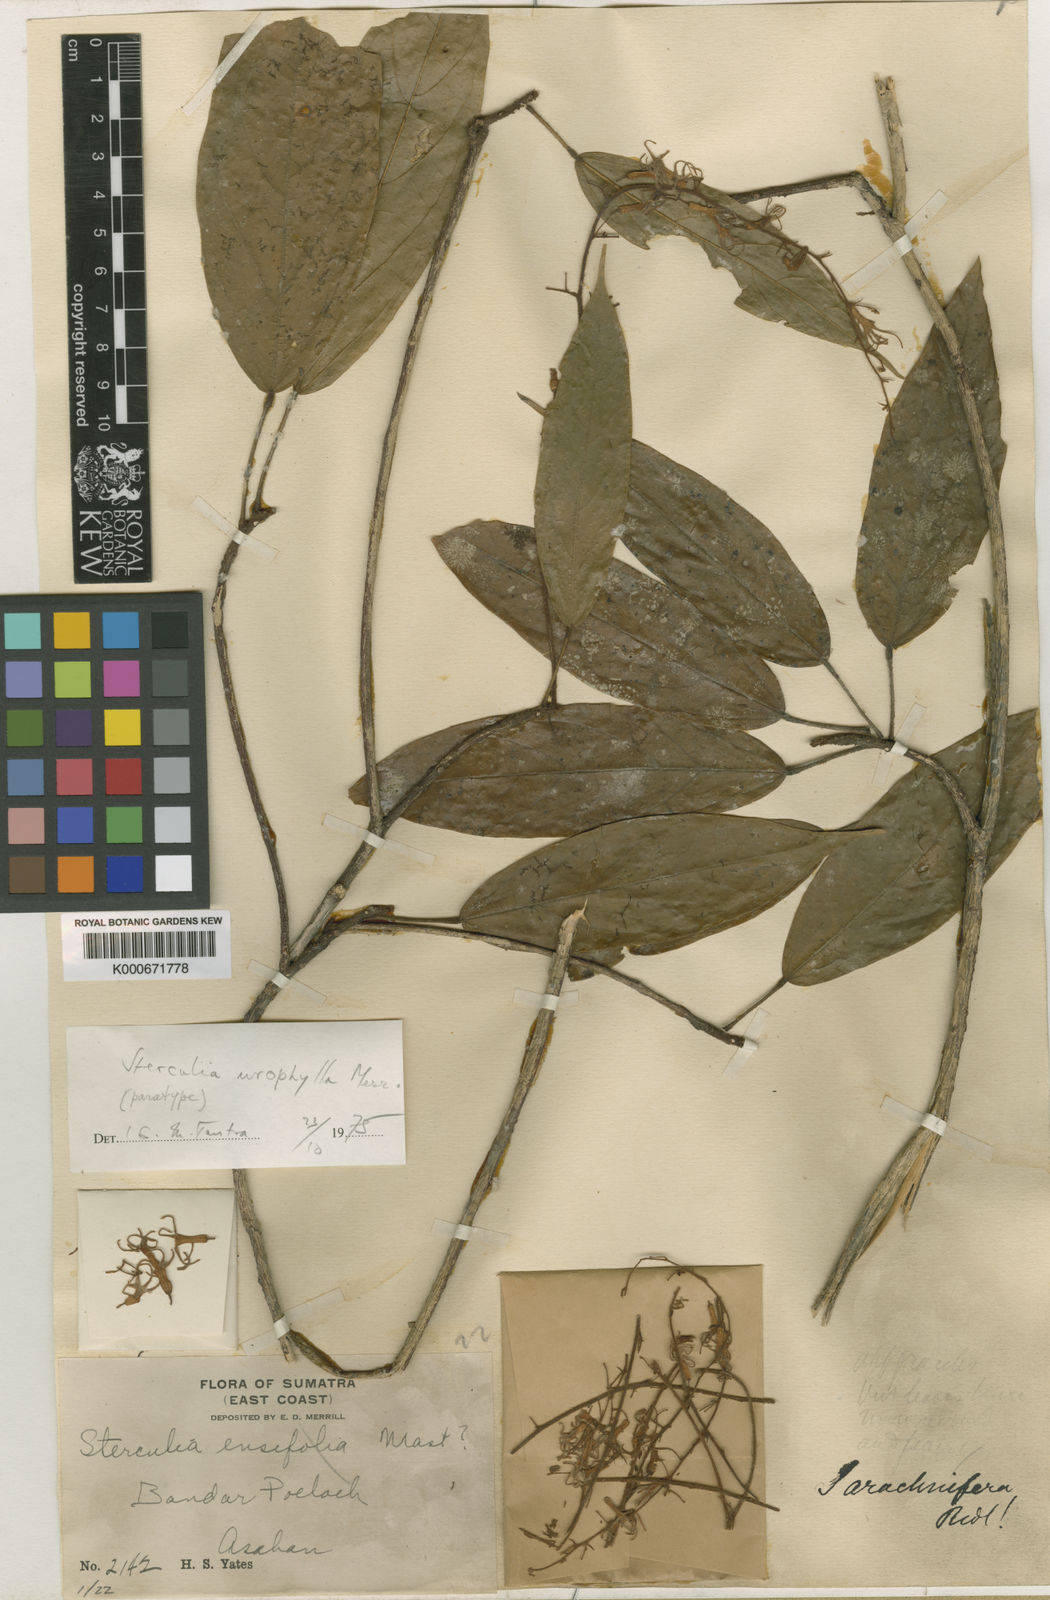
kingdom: Plantae
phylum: Tracheophyta
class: Magnoliopsida
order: Malvales
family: Malvaceae
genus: Sterculia
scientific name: Sterculia urophylla
